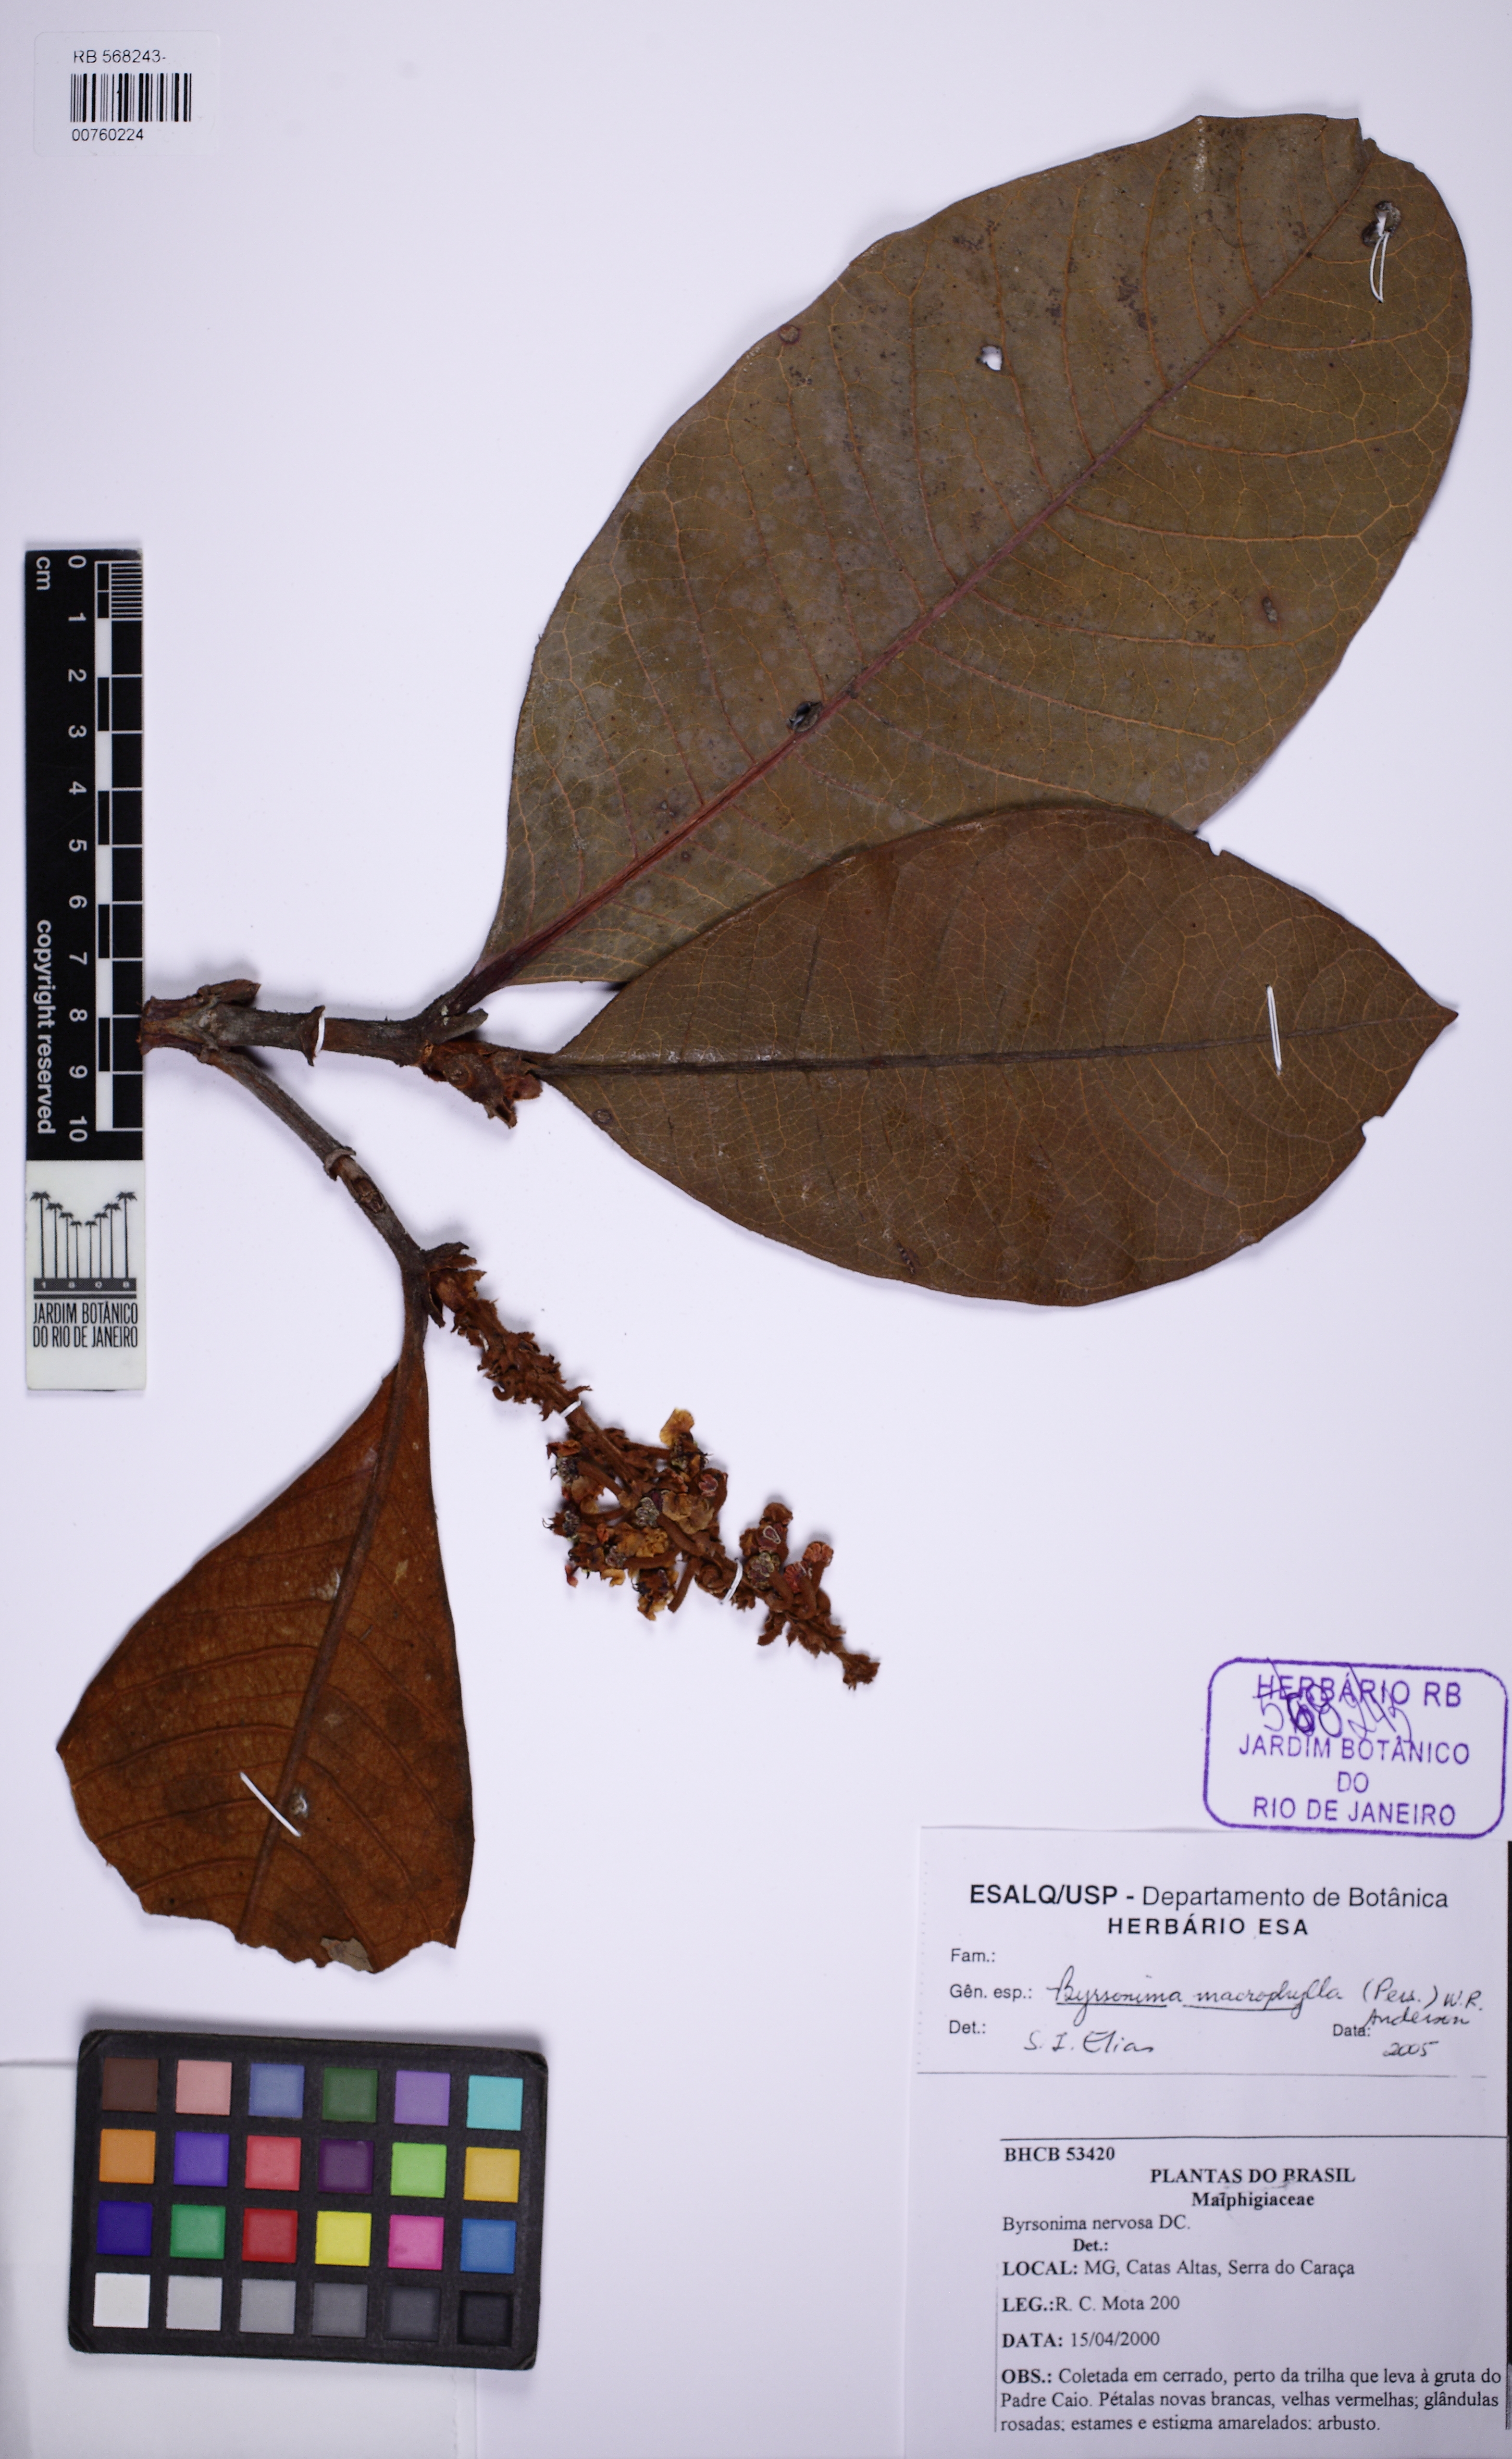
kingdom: Plantae
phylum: Tracheophyta
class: Magnoliopsida
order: Malpighiales
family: Malpighiaceae
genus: Byrsonima
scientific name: Byrsonima macrophylla
